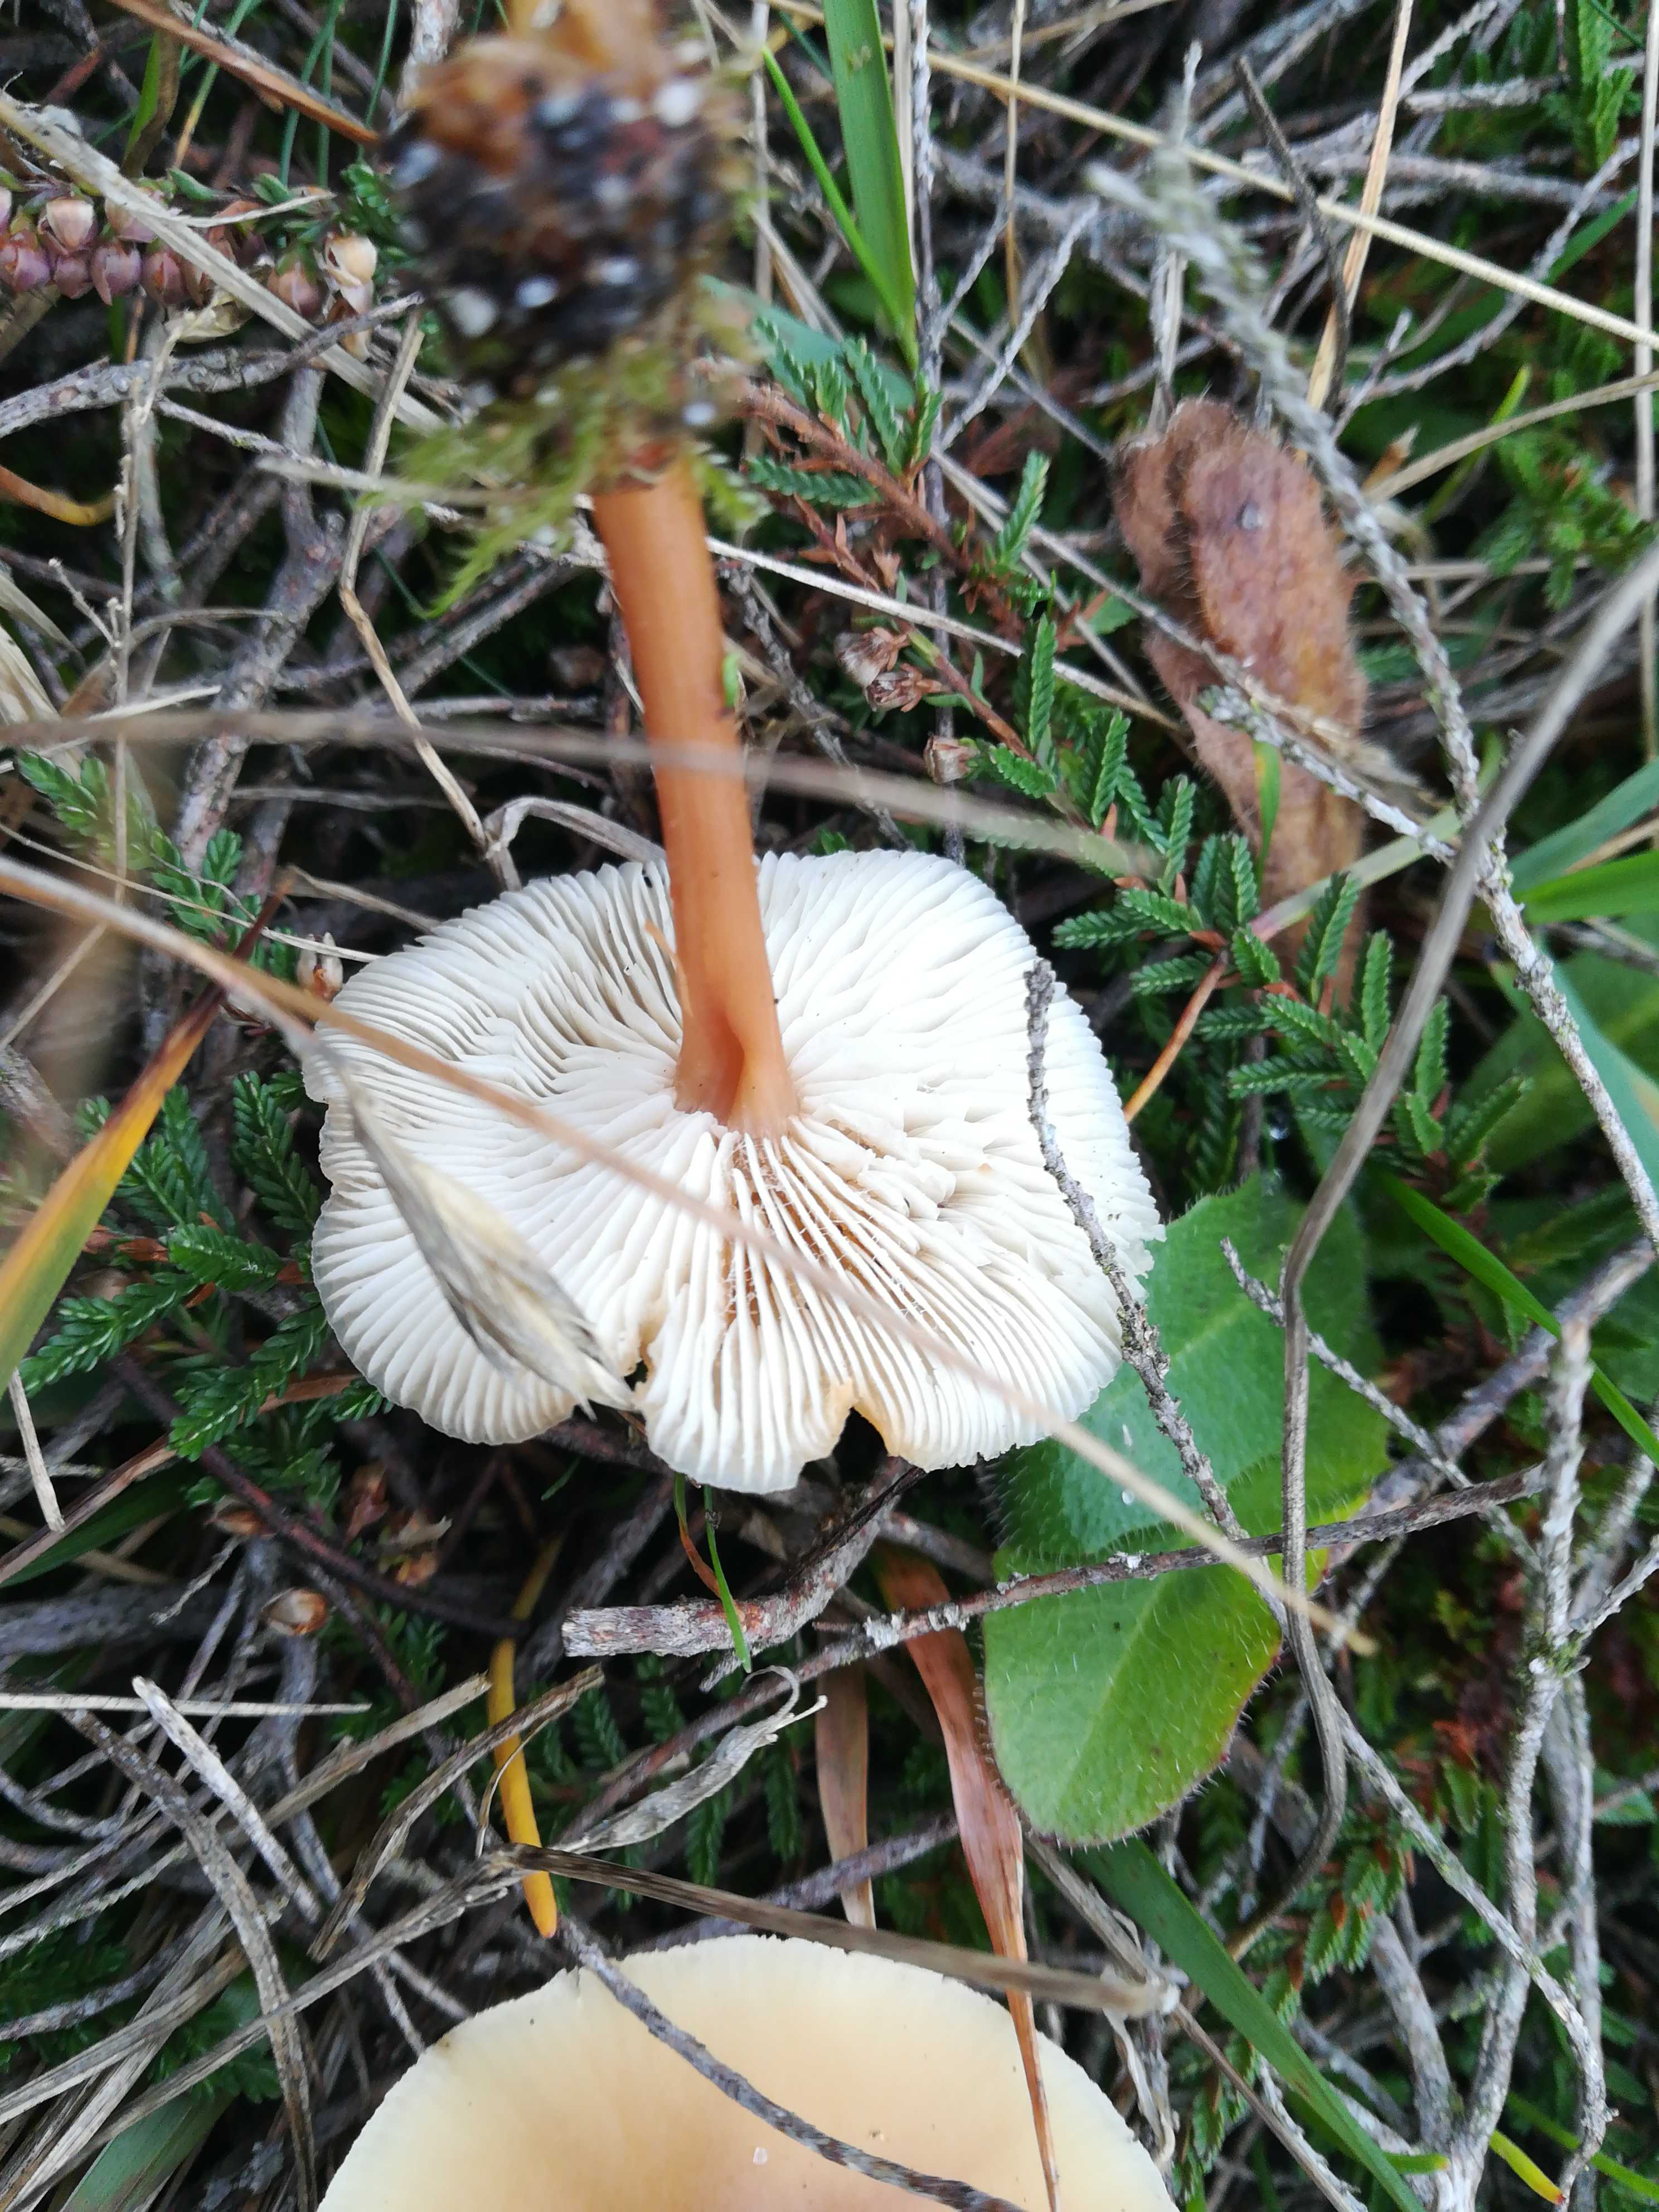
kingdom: Fungi
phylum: Basidiomycota
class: Agaricomycetes
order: Agaricales
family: Omphalotaceae
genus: Gymnopus
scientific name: Gymnopus dryophilus
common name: løv-fladhat
